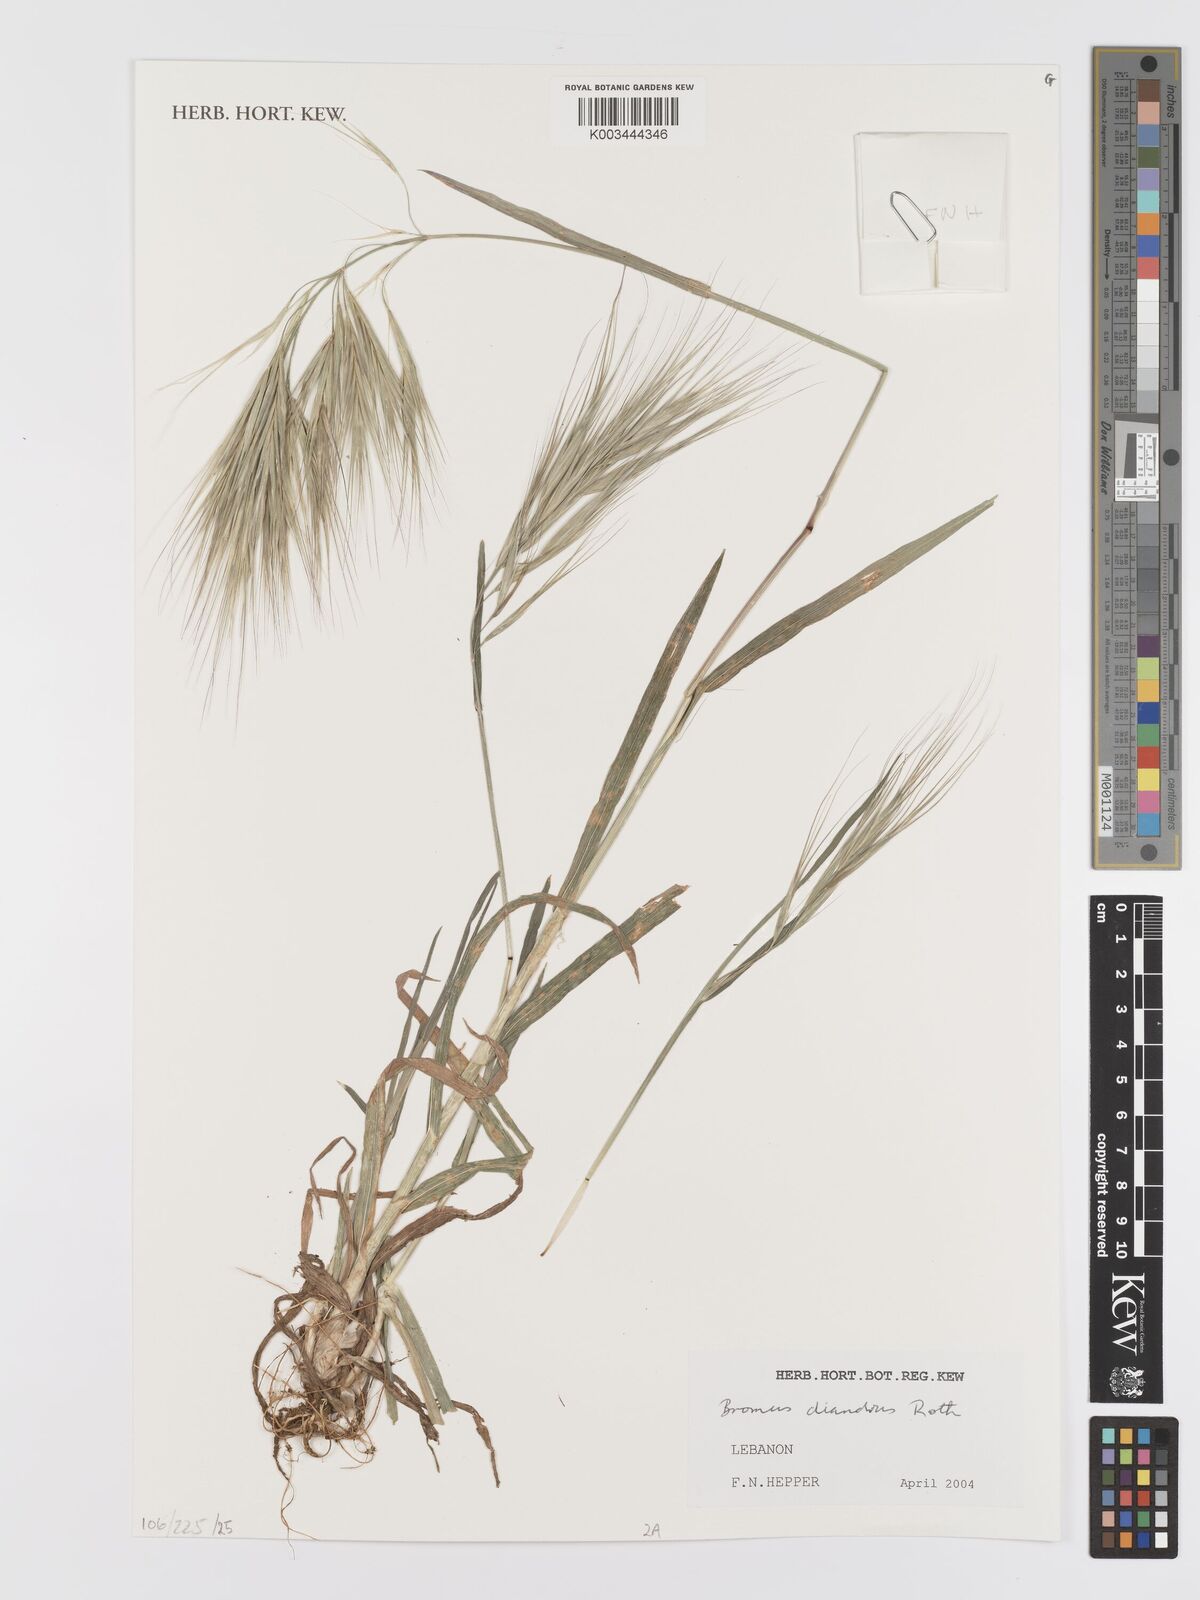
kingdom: Plantae
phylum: Tracheophyta
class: Liliopsida
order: Poales
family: Poaceae
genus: Bromus
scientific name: Bromus diandrus
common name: Ripgut brome
